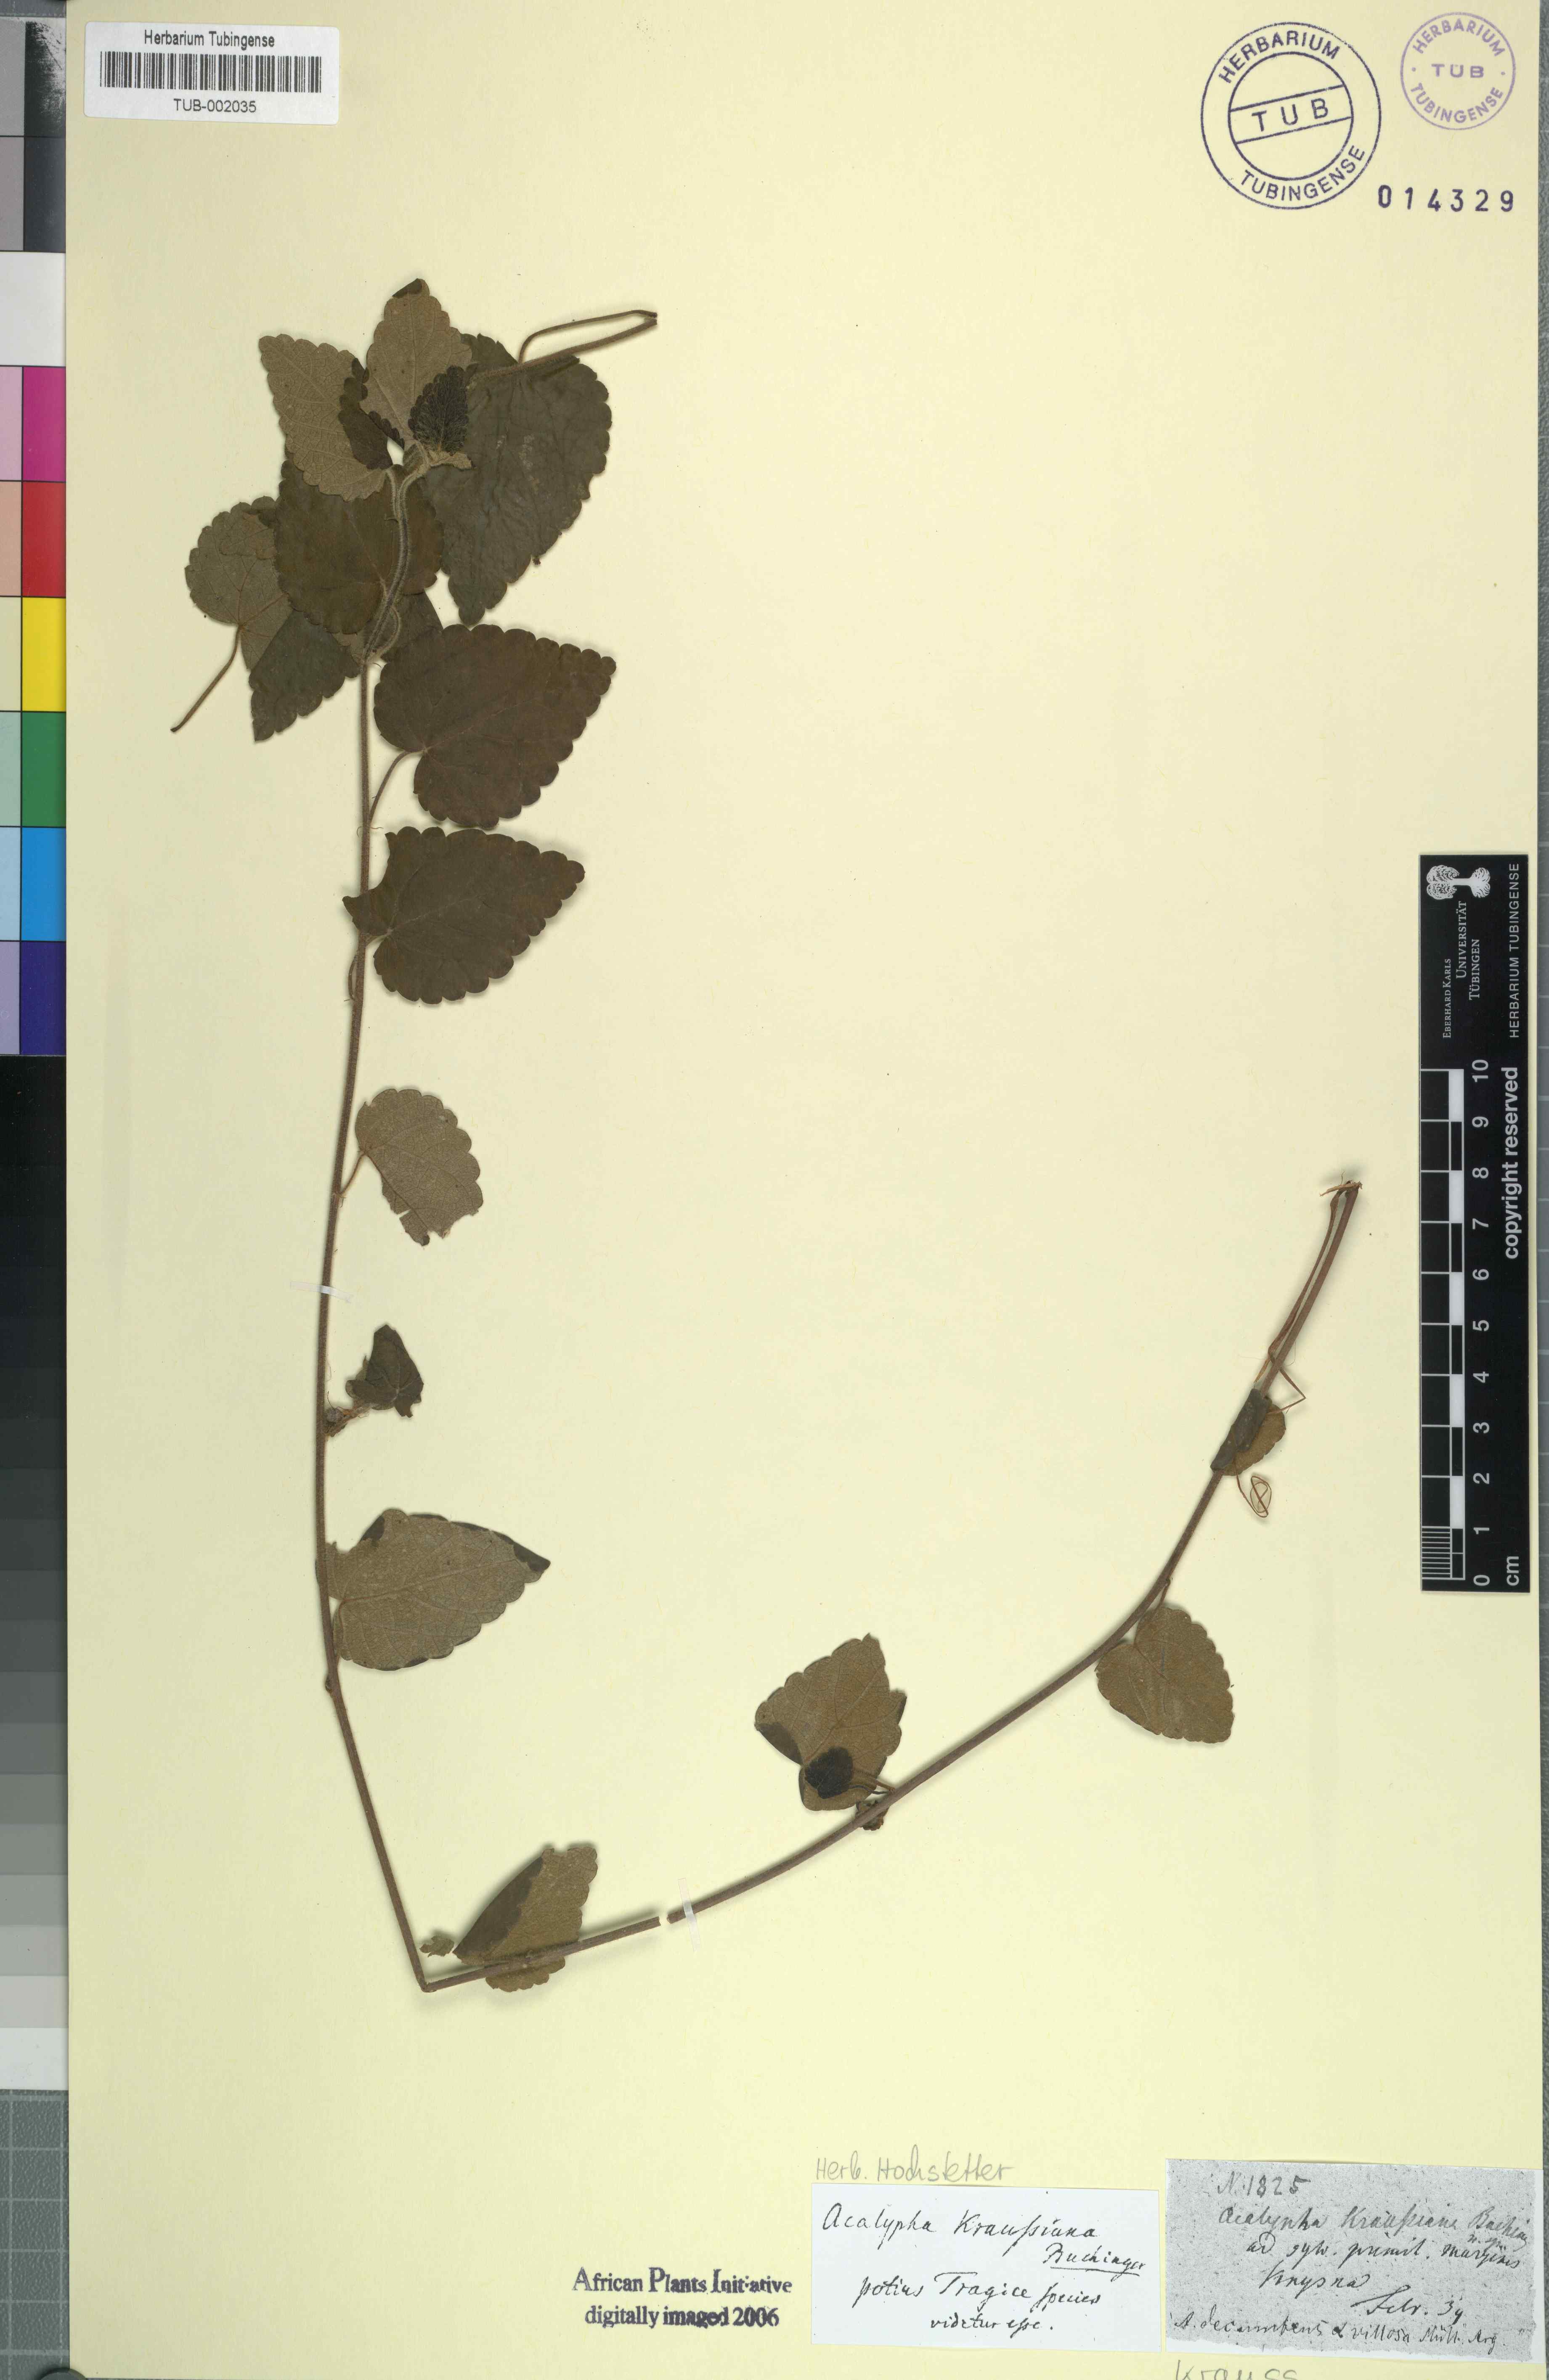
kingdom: Plantae
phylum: Tracheophyta
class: Magnoliopsida
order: Rosales
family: Urticaceae
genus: Didymodoxa
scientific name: Didymodoxa capensis
